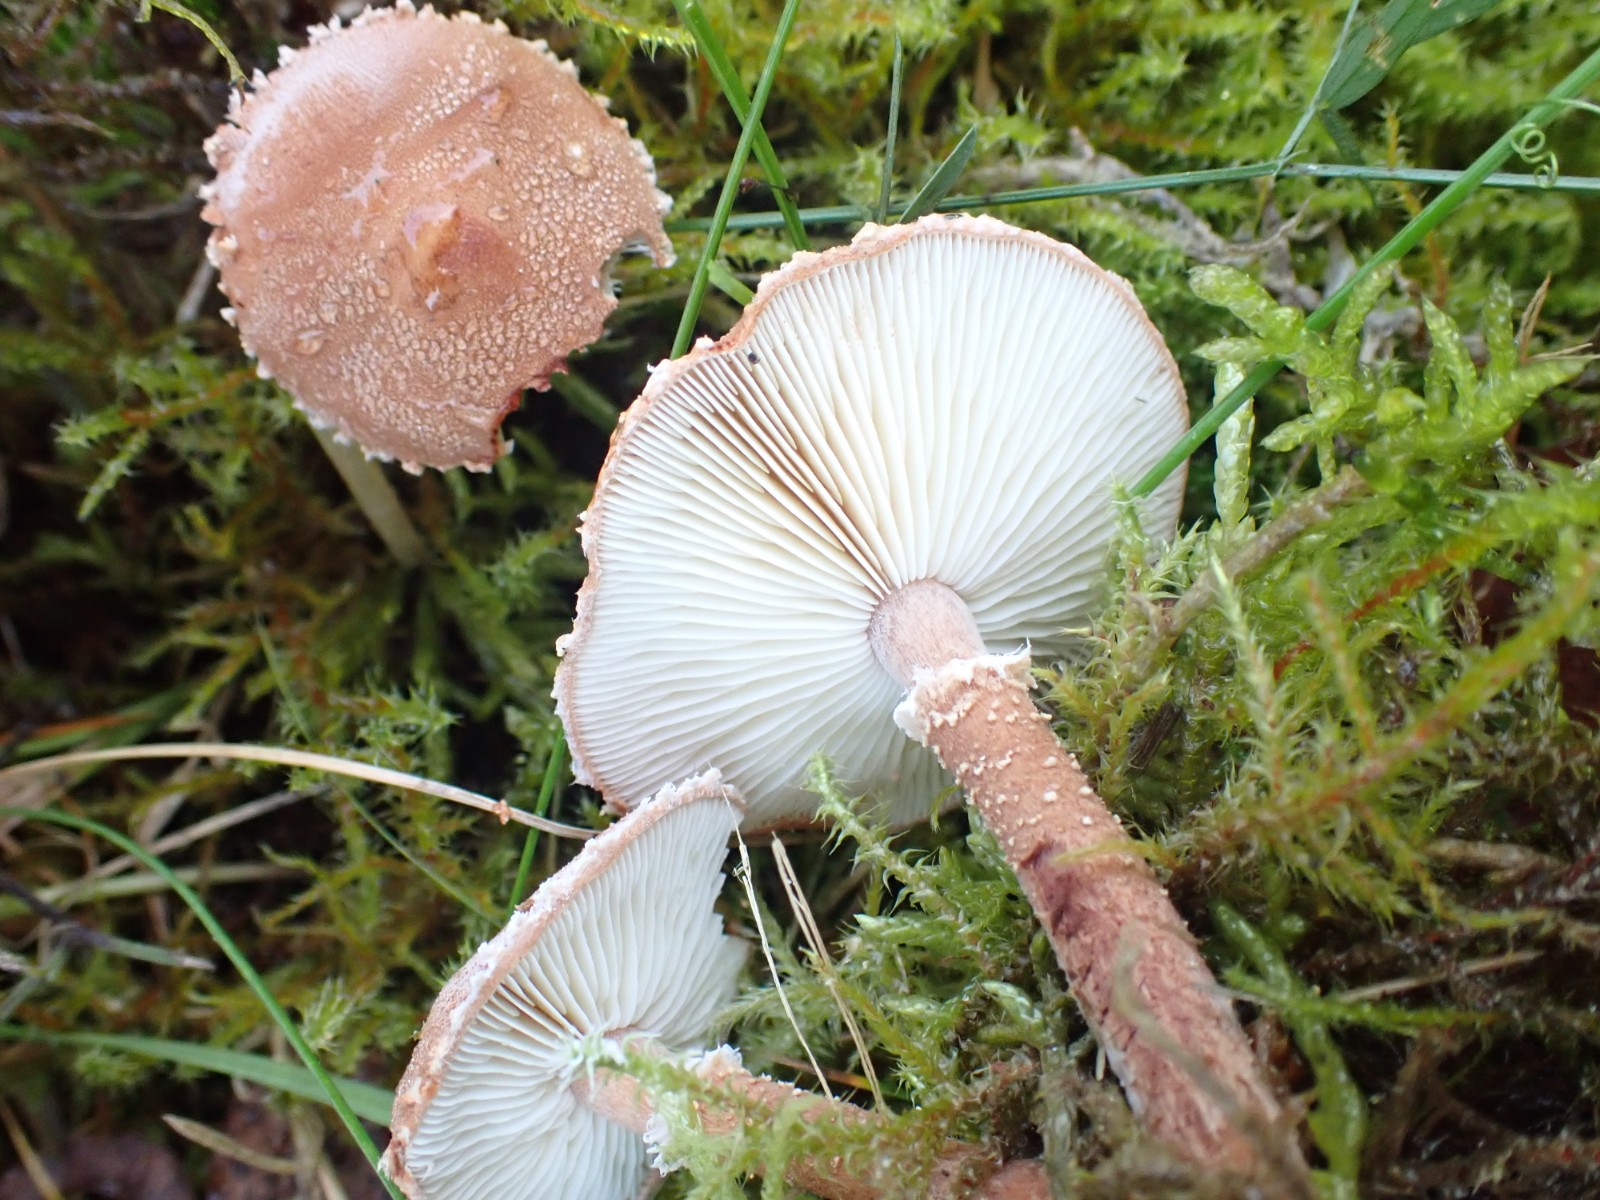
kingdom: Fungi
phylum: Basidiomycota
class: Agaricomycetes
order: Agaricales
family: Agaricaceae
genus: Cystodermella
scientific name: Cystodermella granulosa
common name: kliddet grynhat
